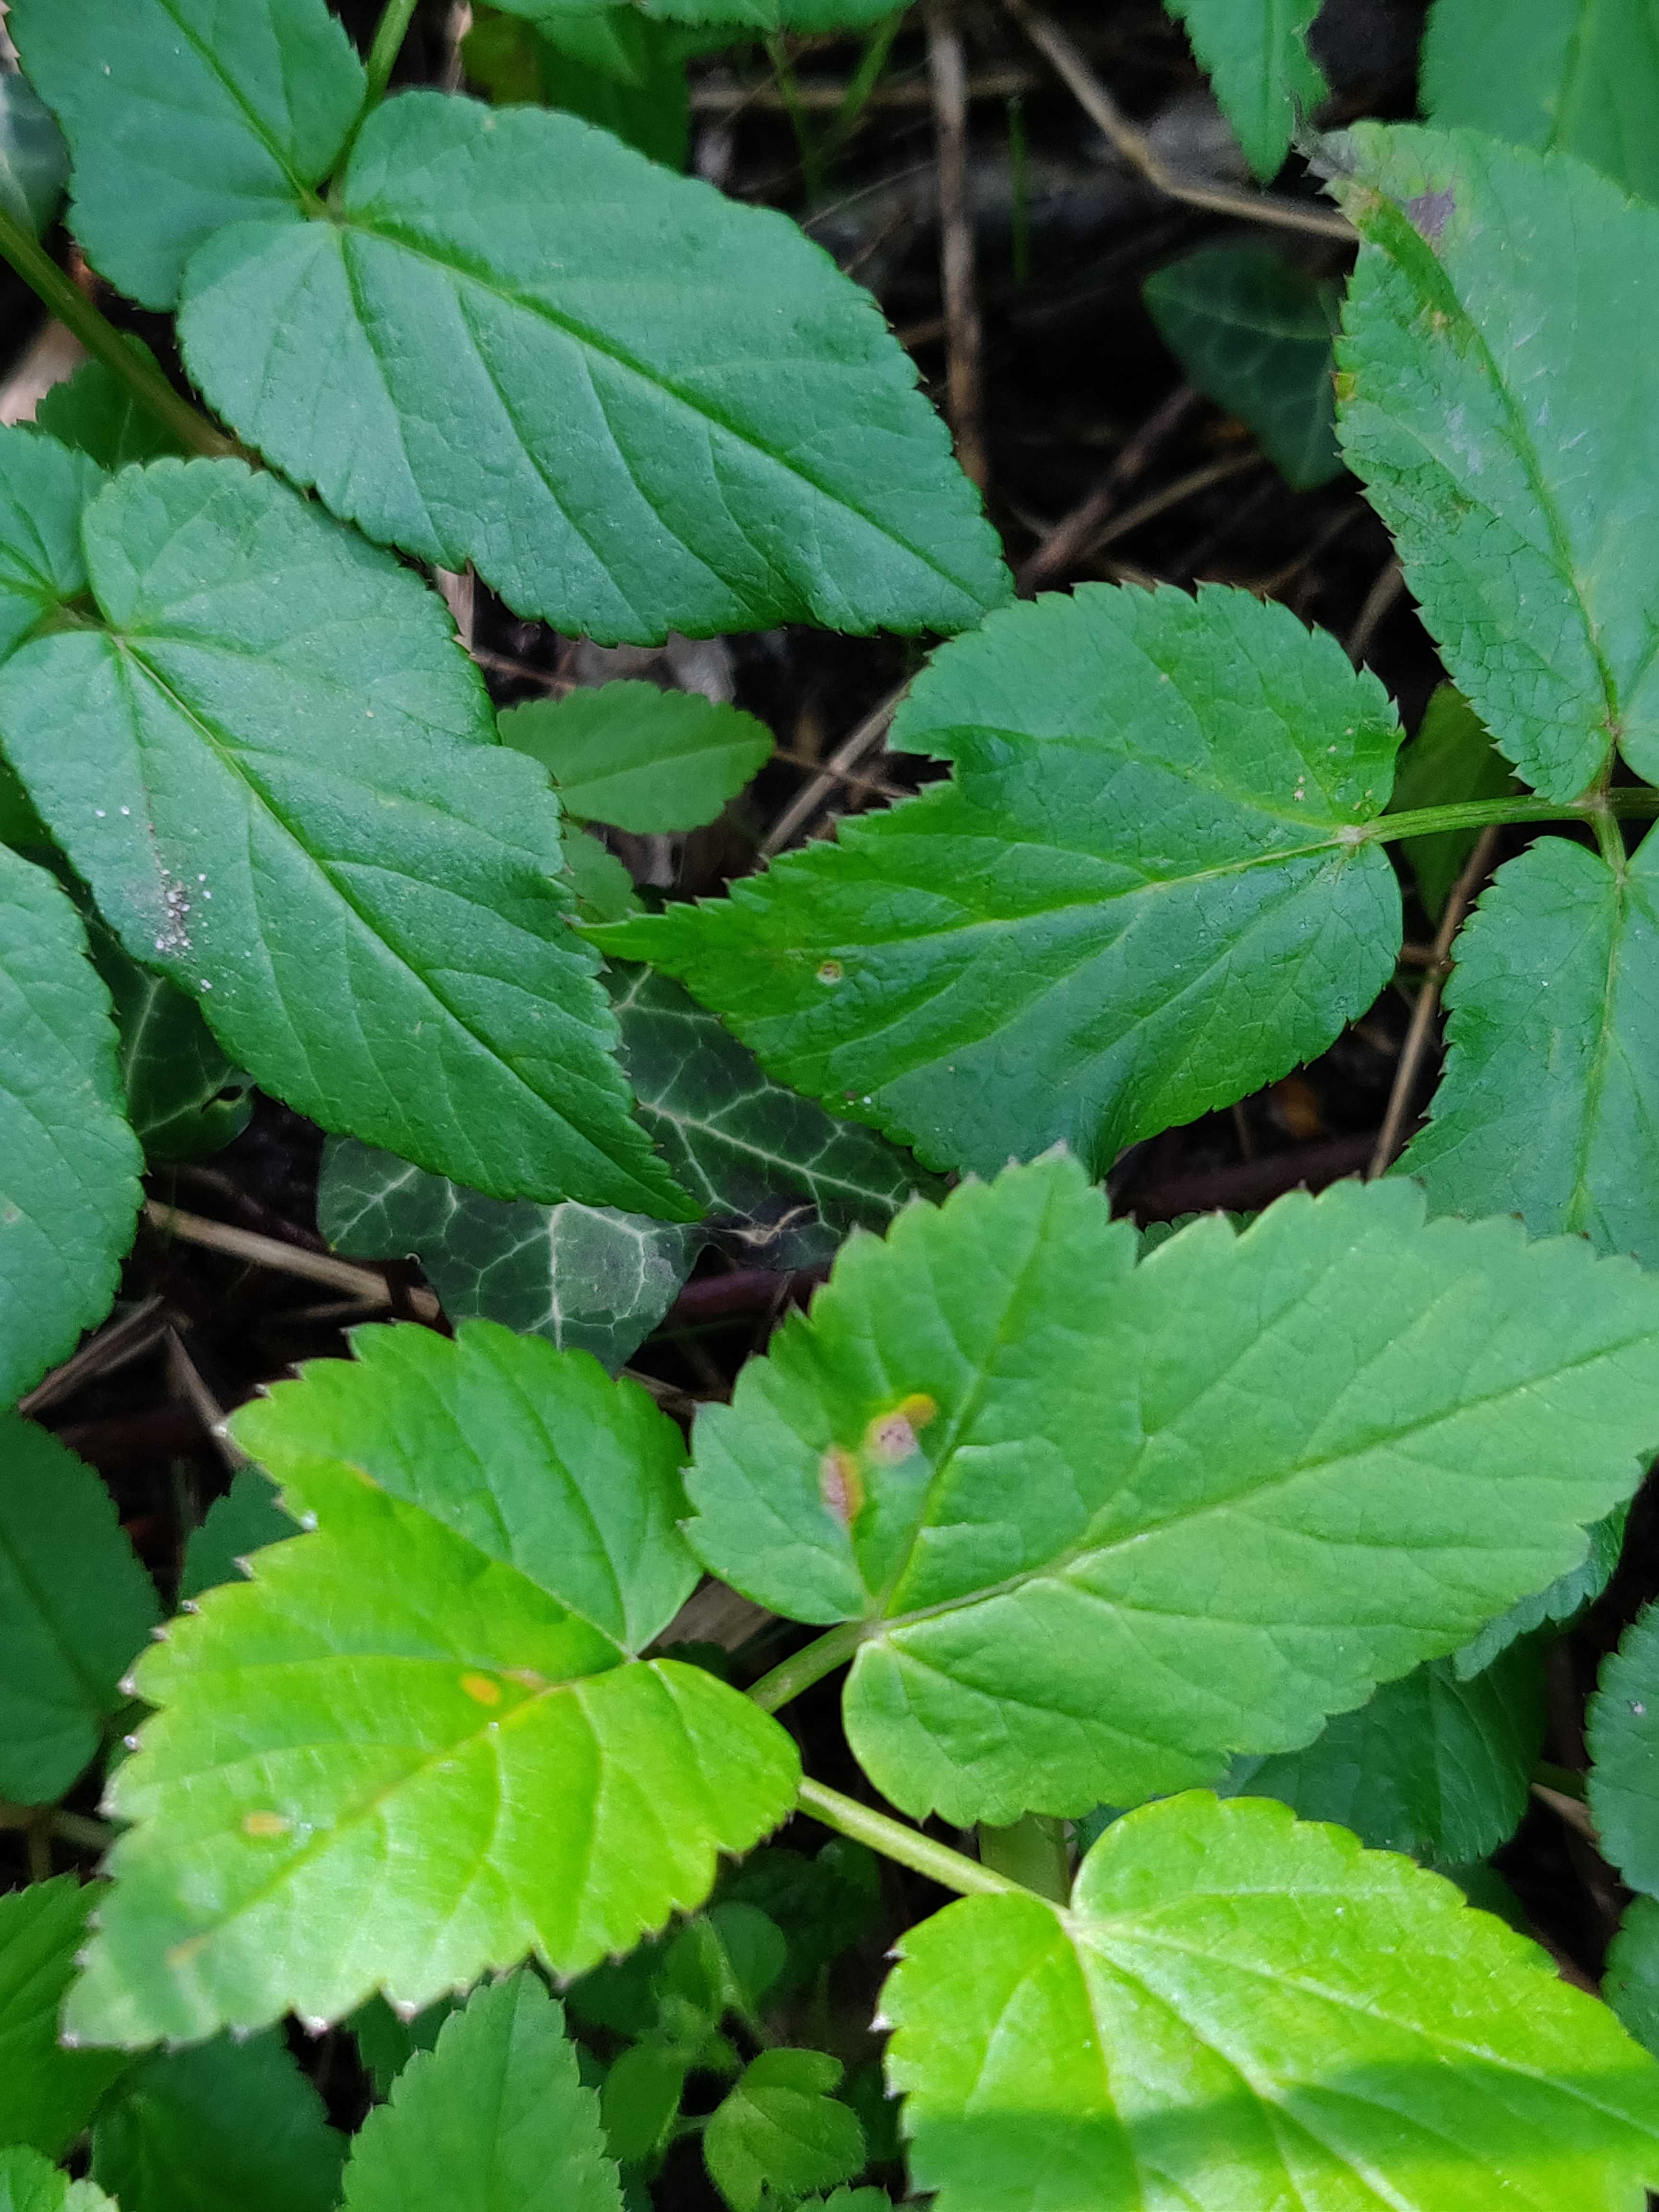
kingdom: Fungi
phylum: Basidiomycota
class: Pucciniomycetes
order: Pucciniales
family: Pucciniaceae
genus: Puccinia
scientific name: Puccinia
